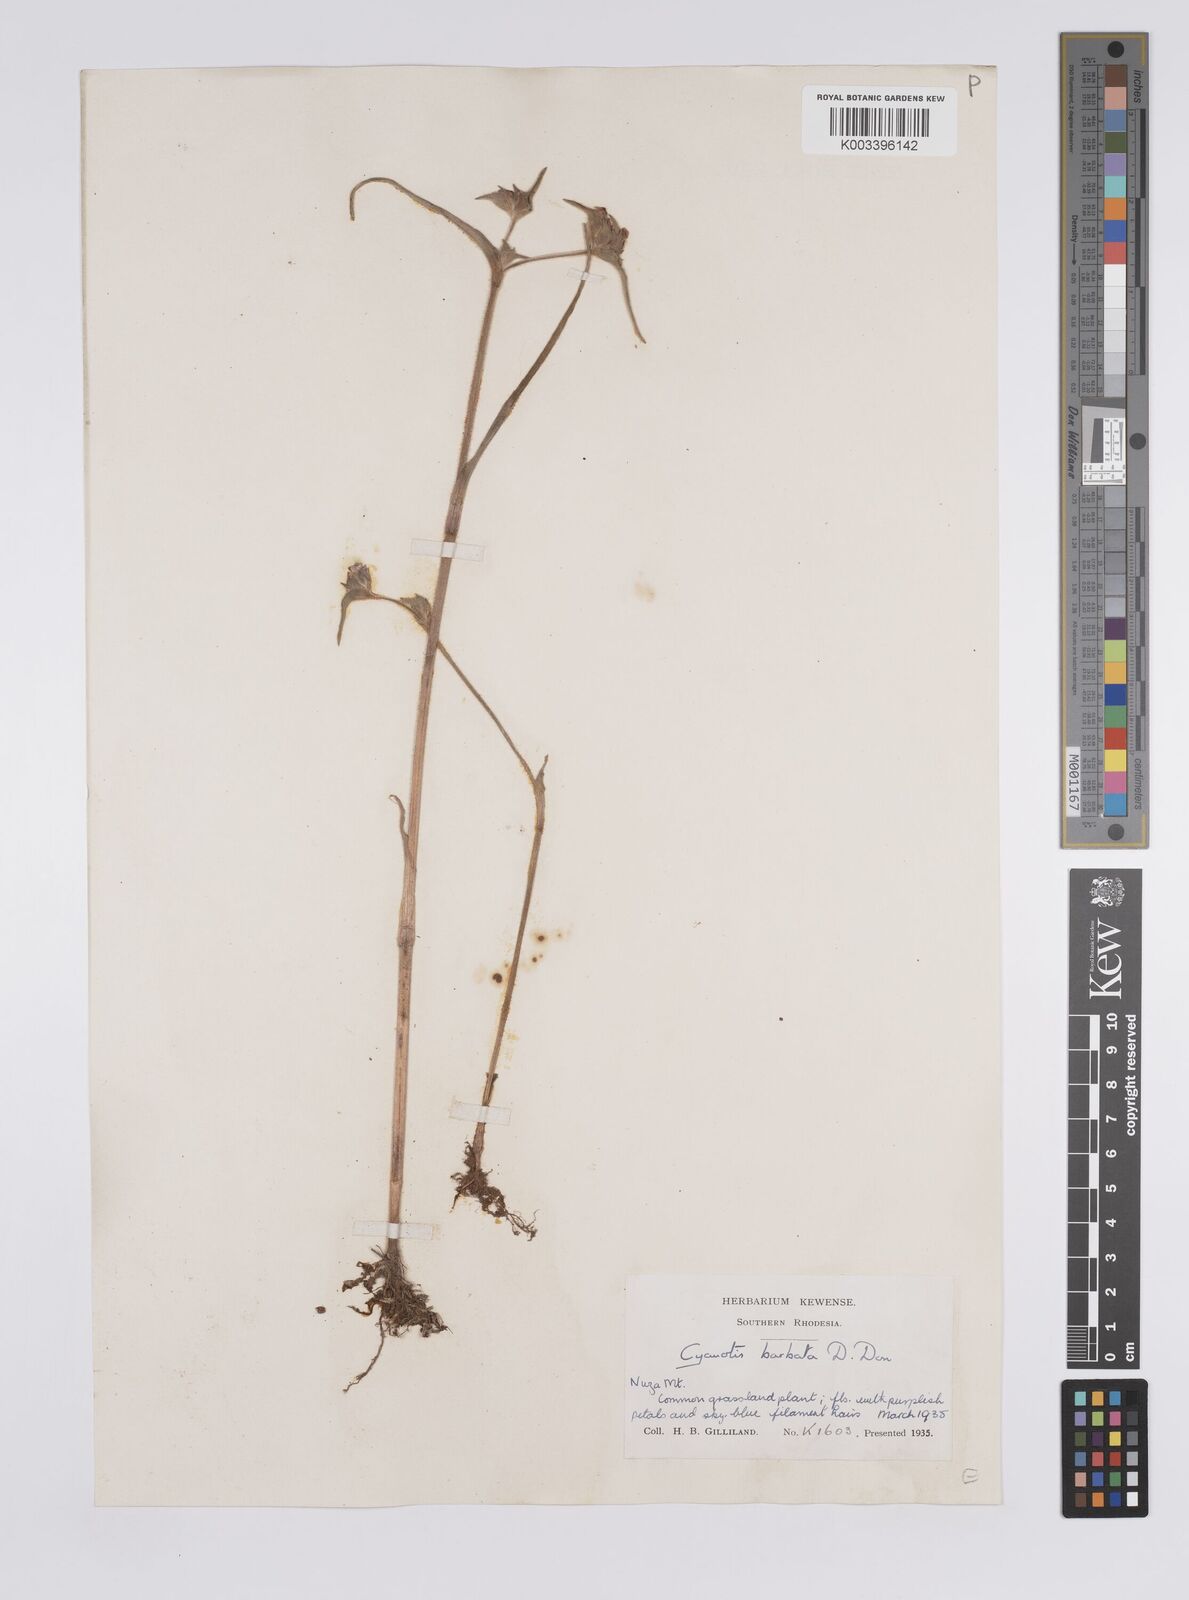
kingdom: Plantae
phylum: Tracheophyta
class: Liliopsida
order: Commelinales
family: Commelinaceae
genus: Cyanotis
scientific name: Cyanotis vaga
